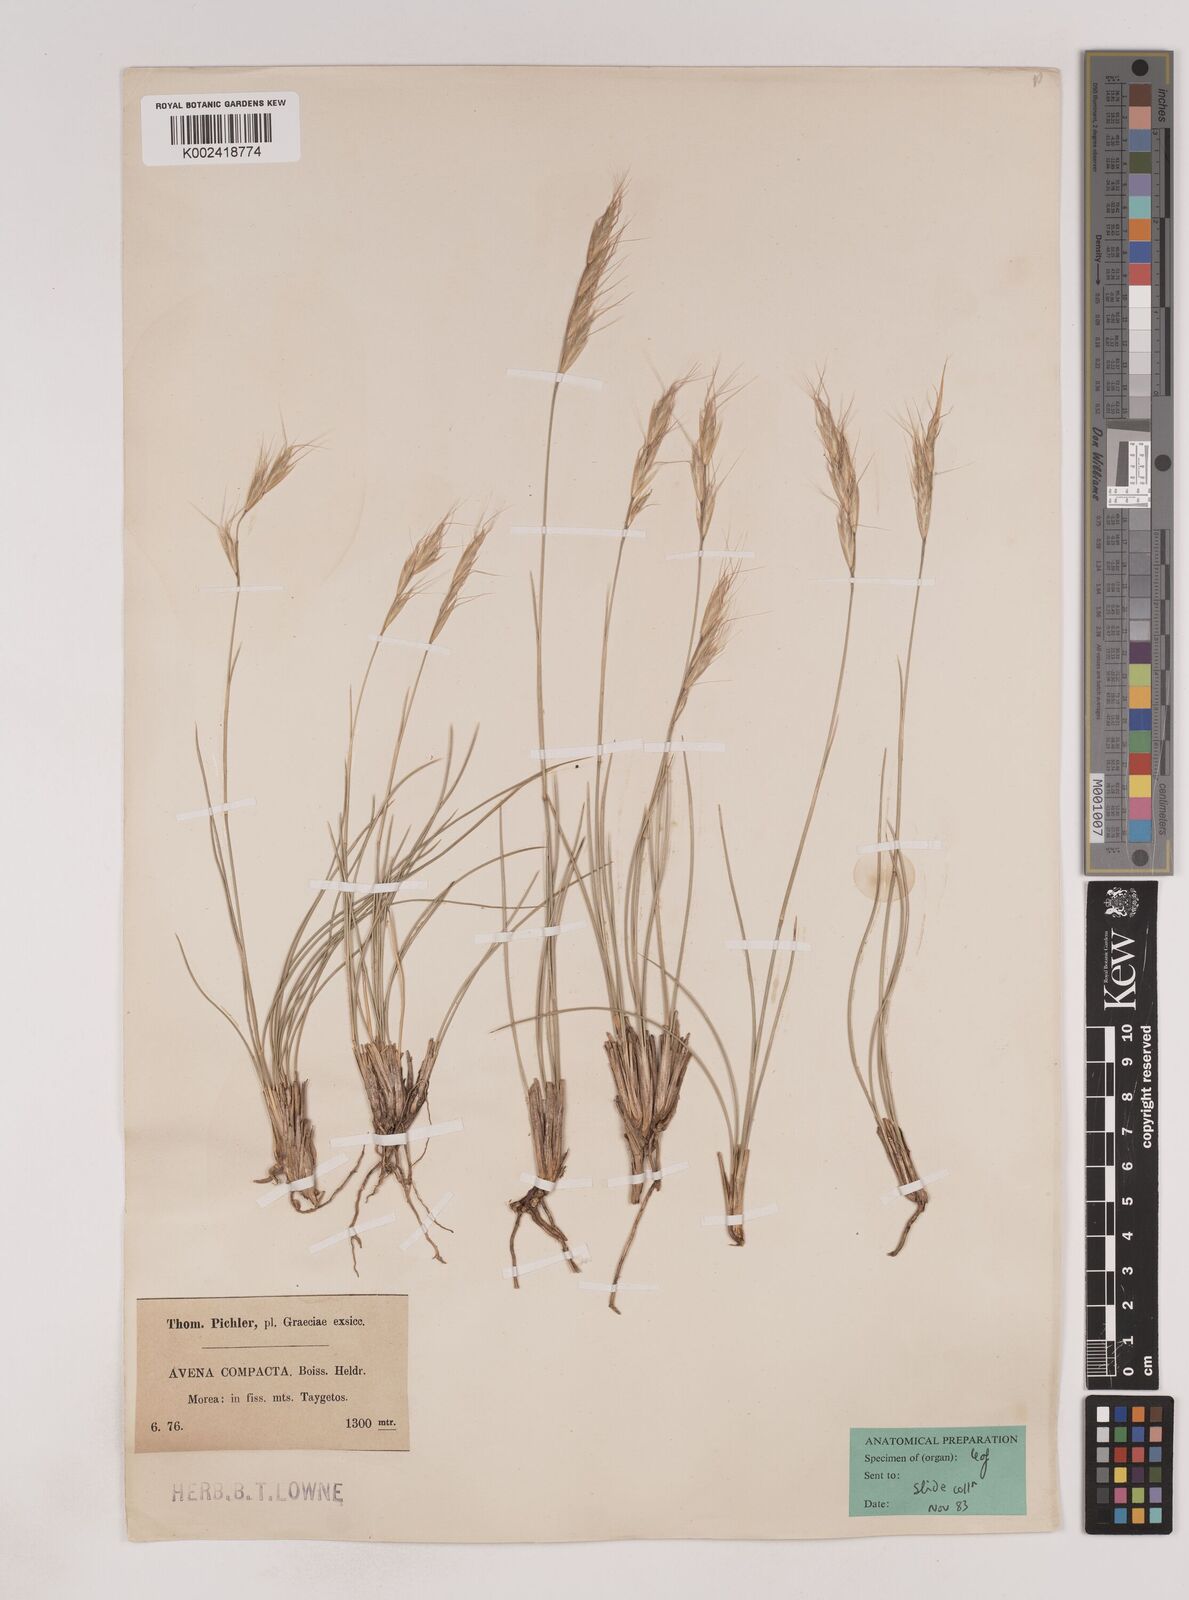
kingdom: Plantae
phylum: Tracheophyta
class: Liliopsida
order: Poales
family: Poaceae
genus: Danthoniastrum
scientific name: Danthoniastrum compactum
